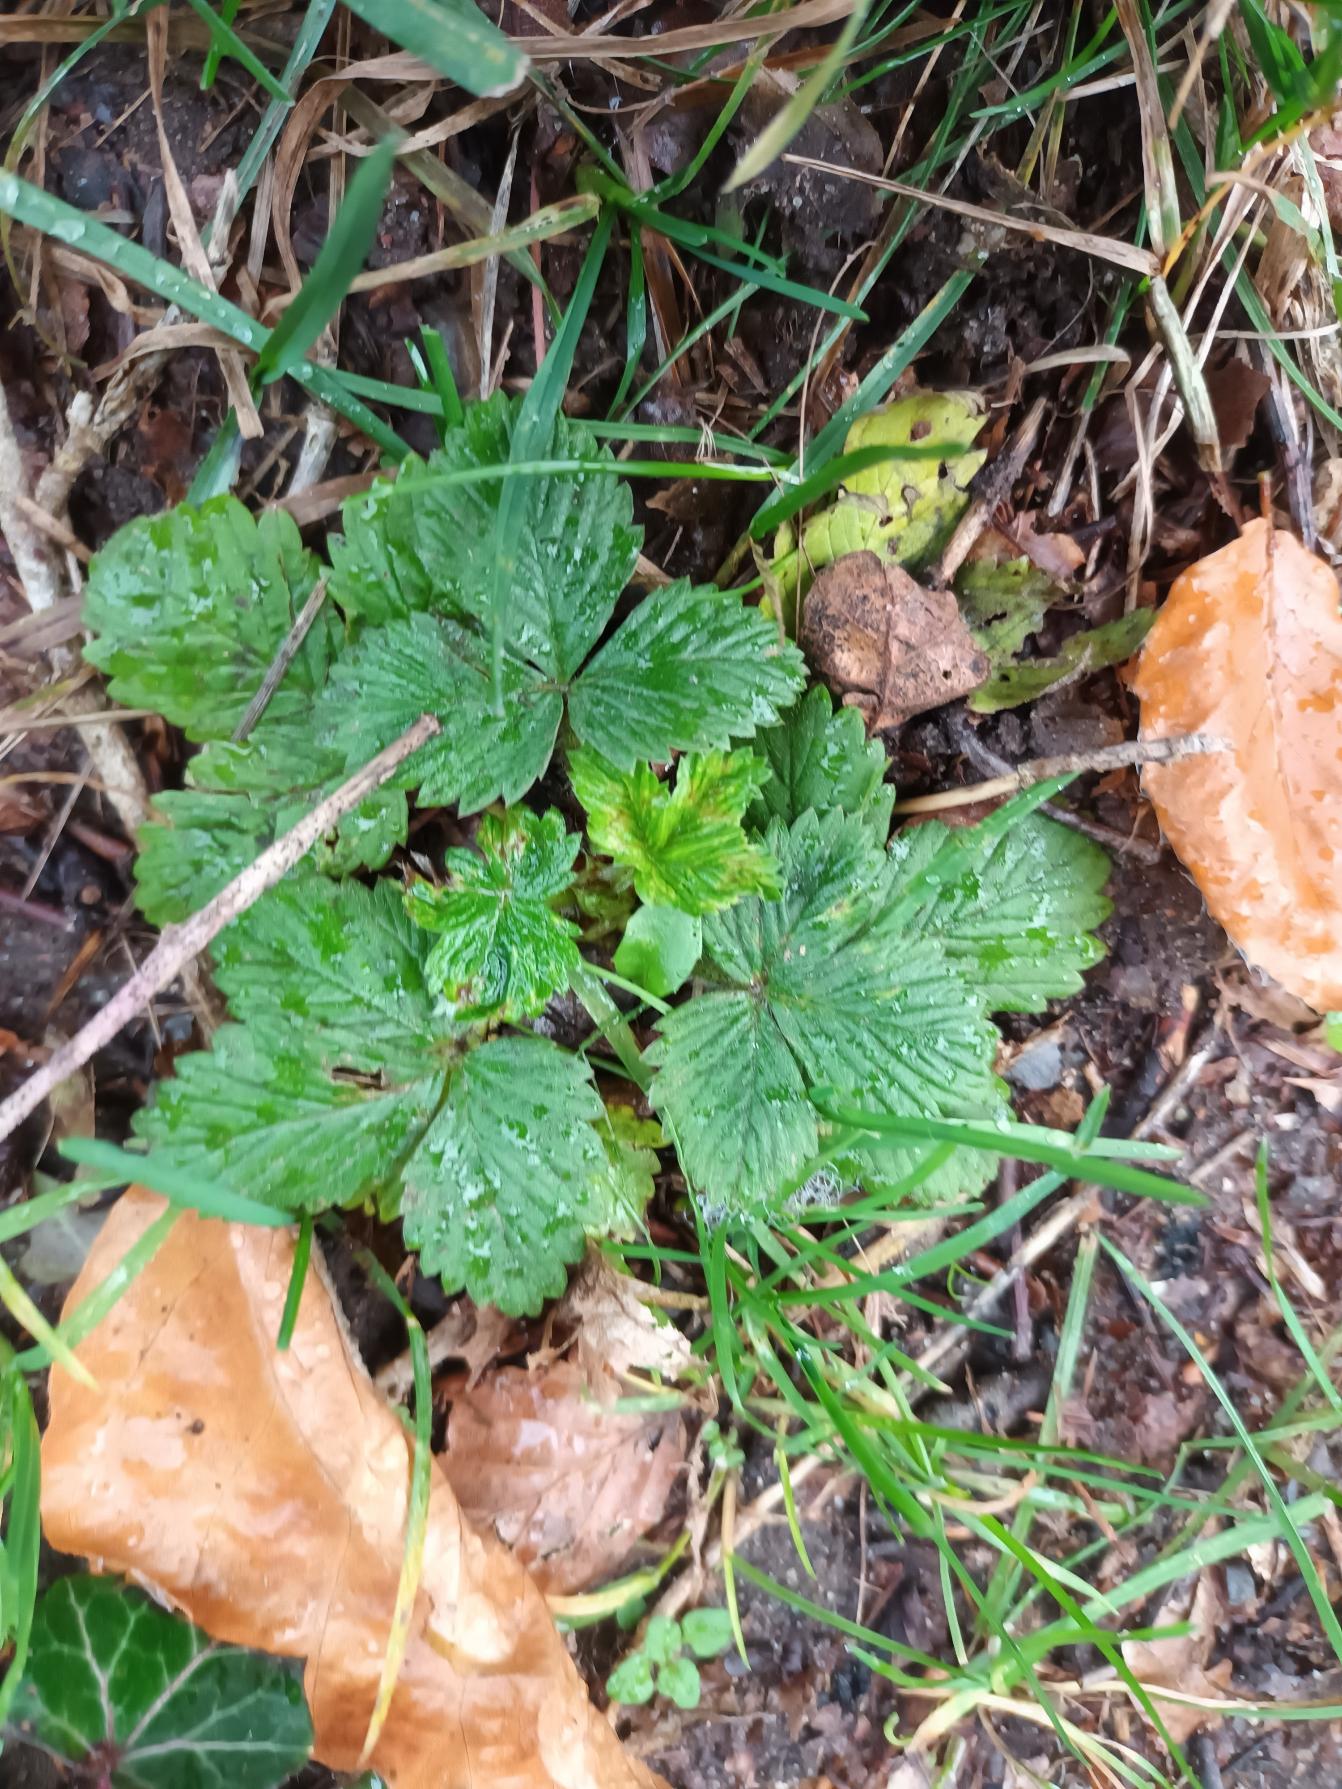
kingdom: Plantae
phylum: Tracheophyta
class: Magnoliopsida
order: Rosales
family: Rosaceae
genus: Fragaria
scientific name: Fragaria vesca
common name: Skov-jordbær
